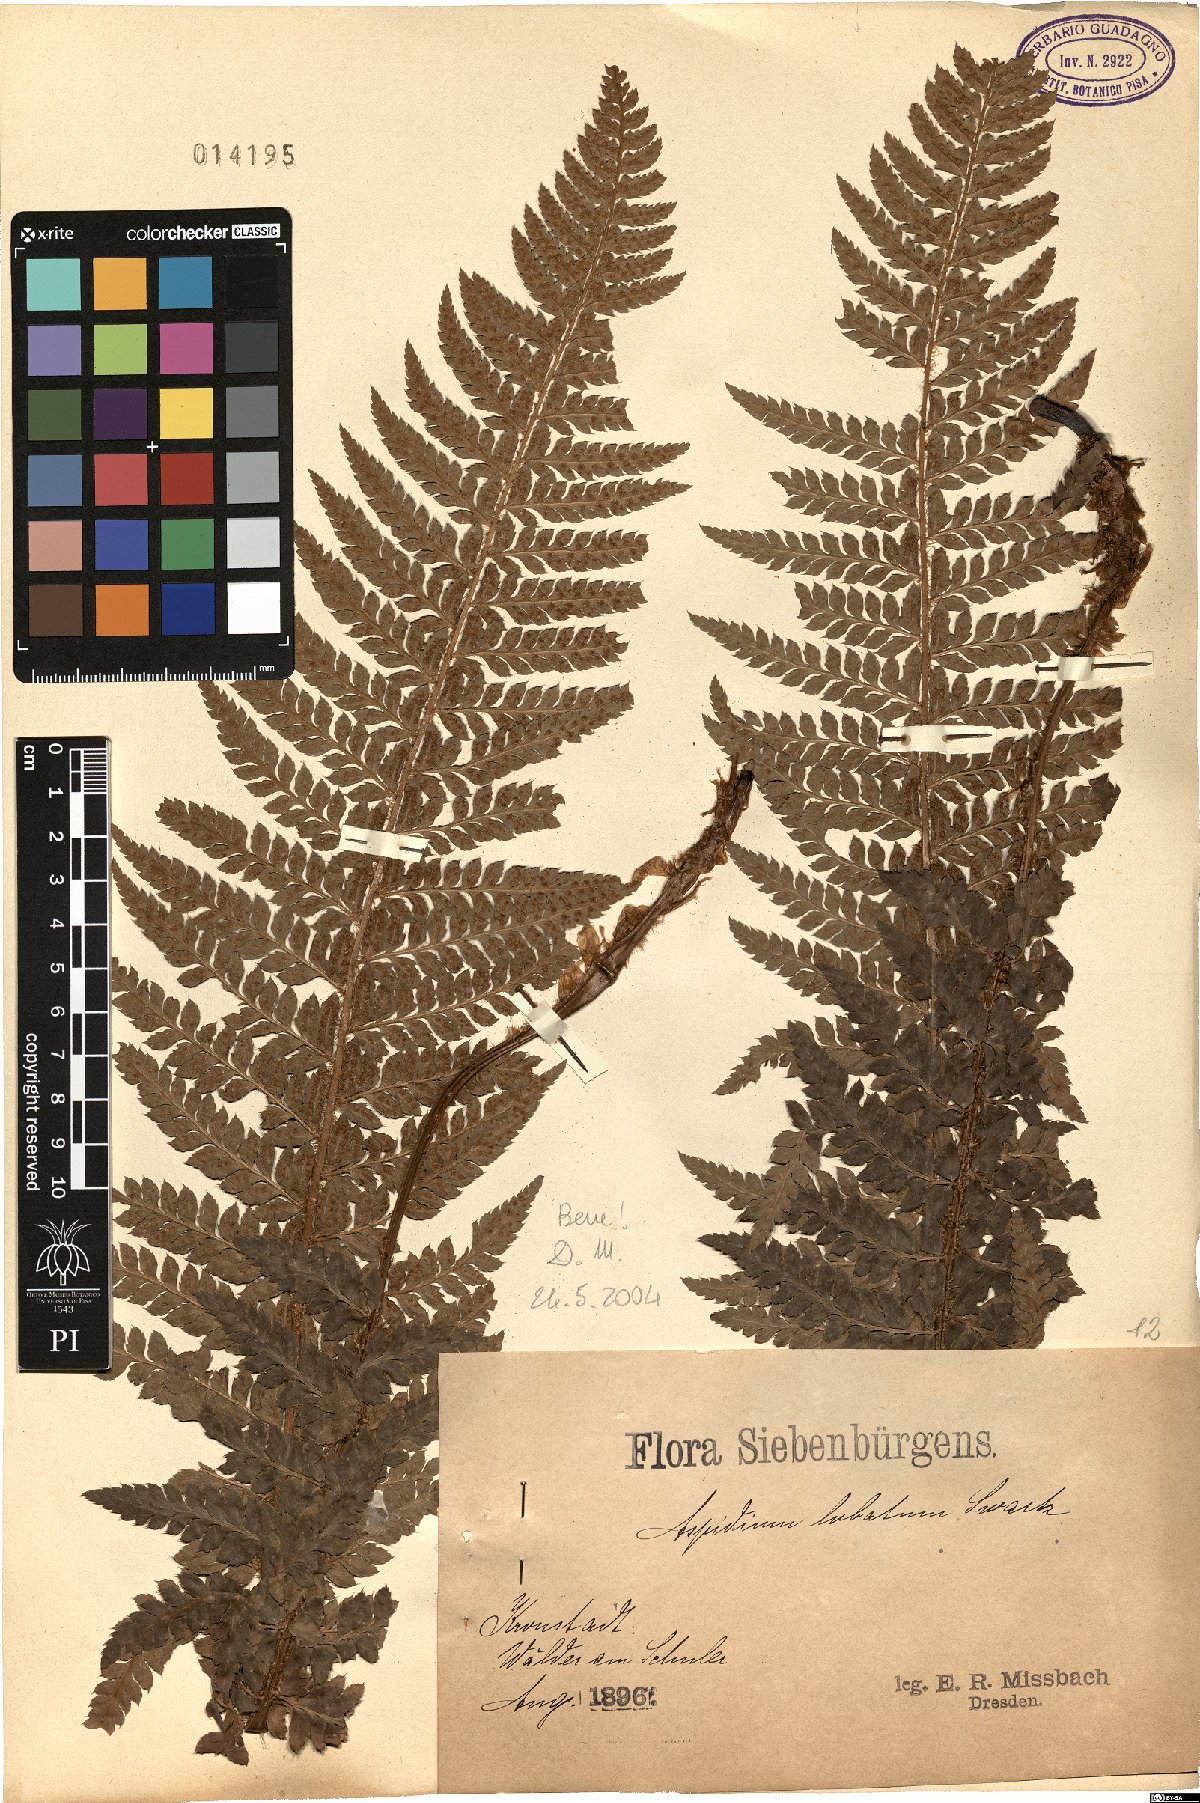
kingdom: Plantae
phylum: Tracheophyta
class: Polypodiopsida
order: Polypodiales
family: Dryopteridaceae
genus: Polystichum
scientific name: Polystichum aculeatum
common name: Hard shield-fern
